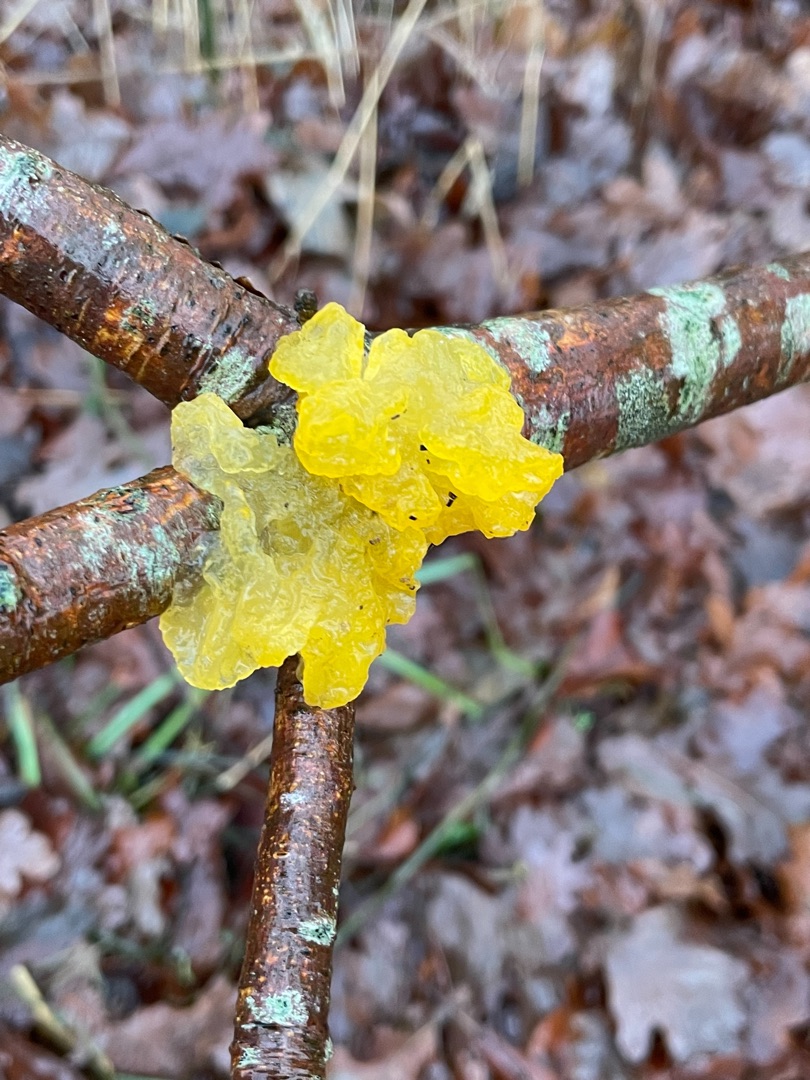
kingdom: Fungi
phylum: Basidiomycota
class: Tremellomycetes
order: Tremellales
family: Tremellaceae
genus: Tremella
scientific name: Tremella mesenterica
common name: Gul bævresvamp
